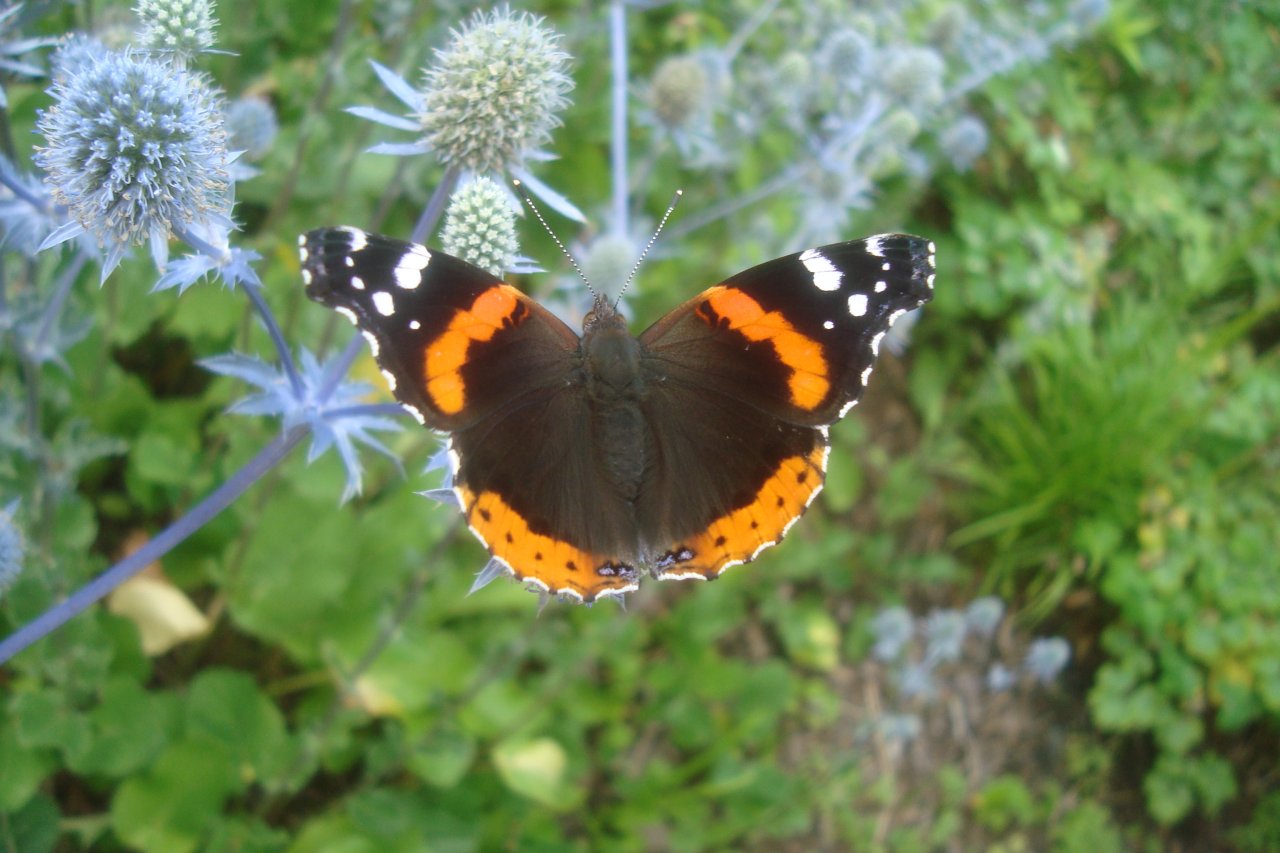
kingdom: Animalia
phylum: Arthropoda
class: Insecta
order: Lepidoptera
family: Nymphalidae
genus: Vanessa
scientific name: Vanessa atalanta
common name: Red Admiral
